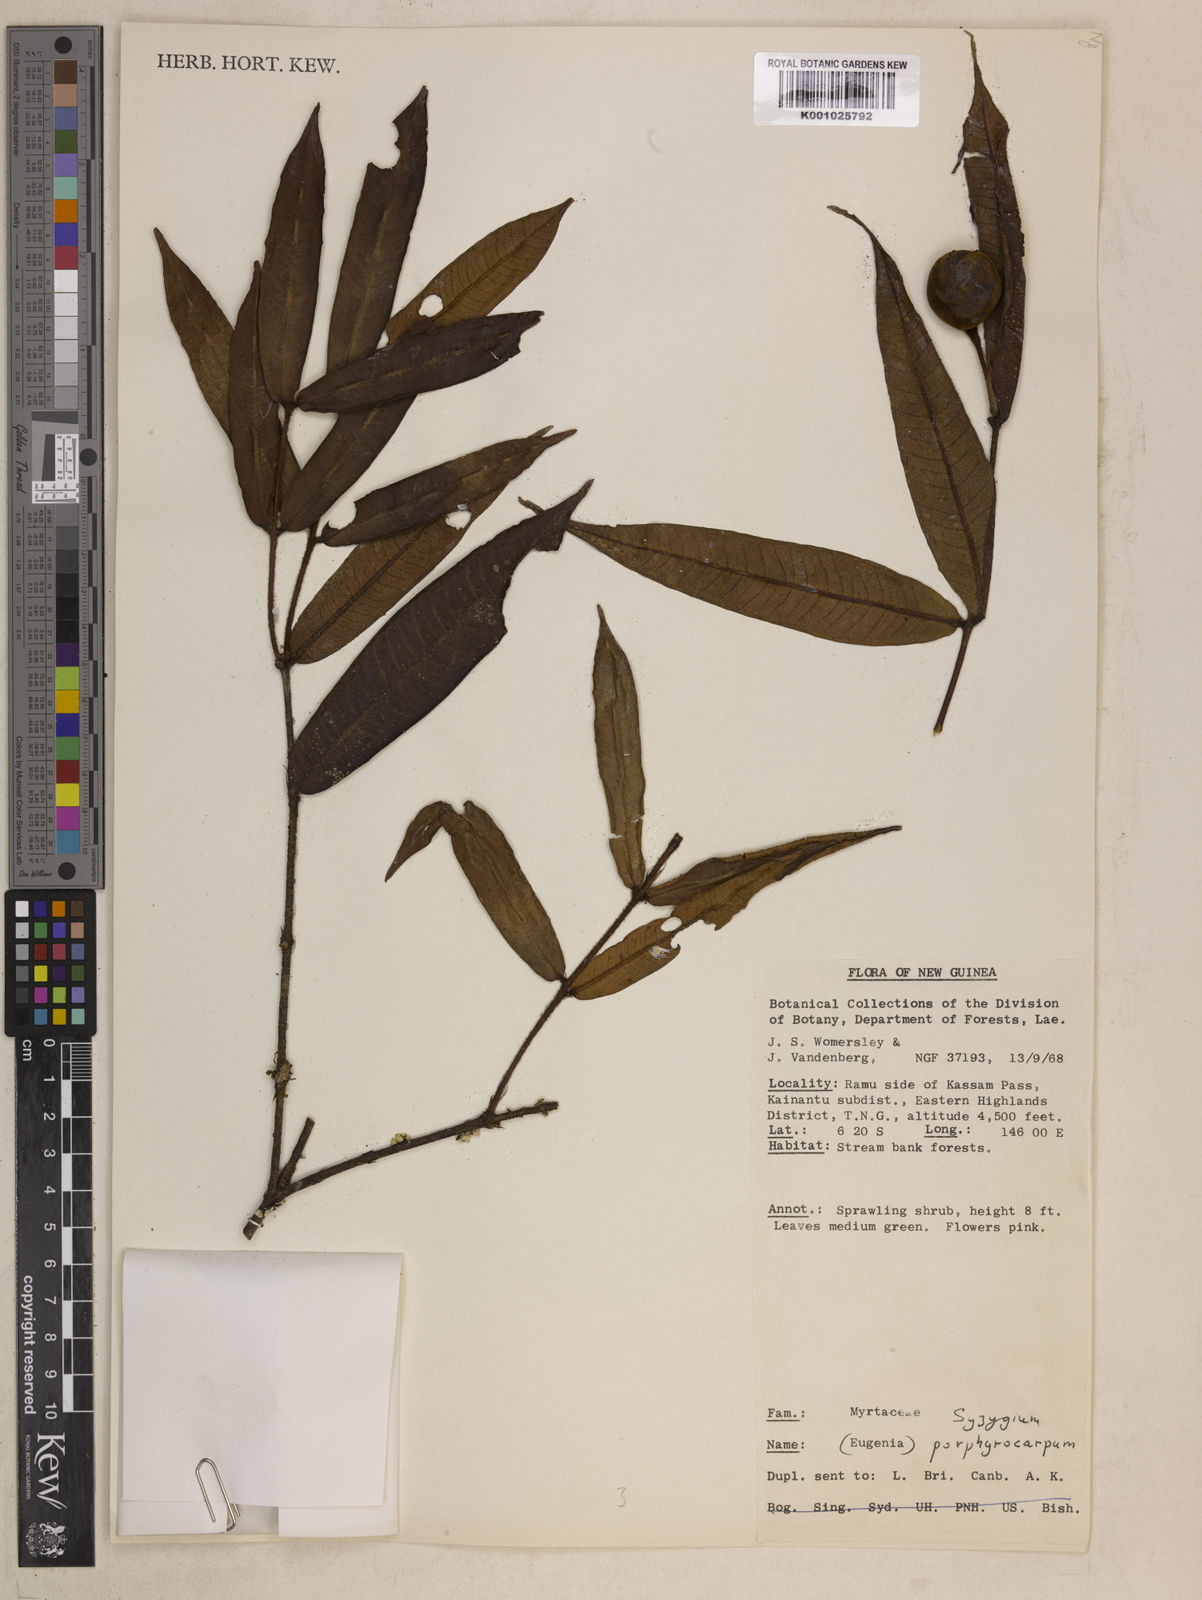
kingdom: Plantae
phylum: Tracheophyta
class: Magnoliopsida
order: Myrtales
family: Myrtaceae
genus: Syzygium
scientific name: Syzygium porphyrocarpum
